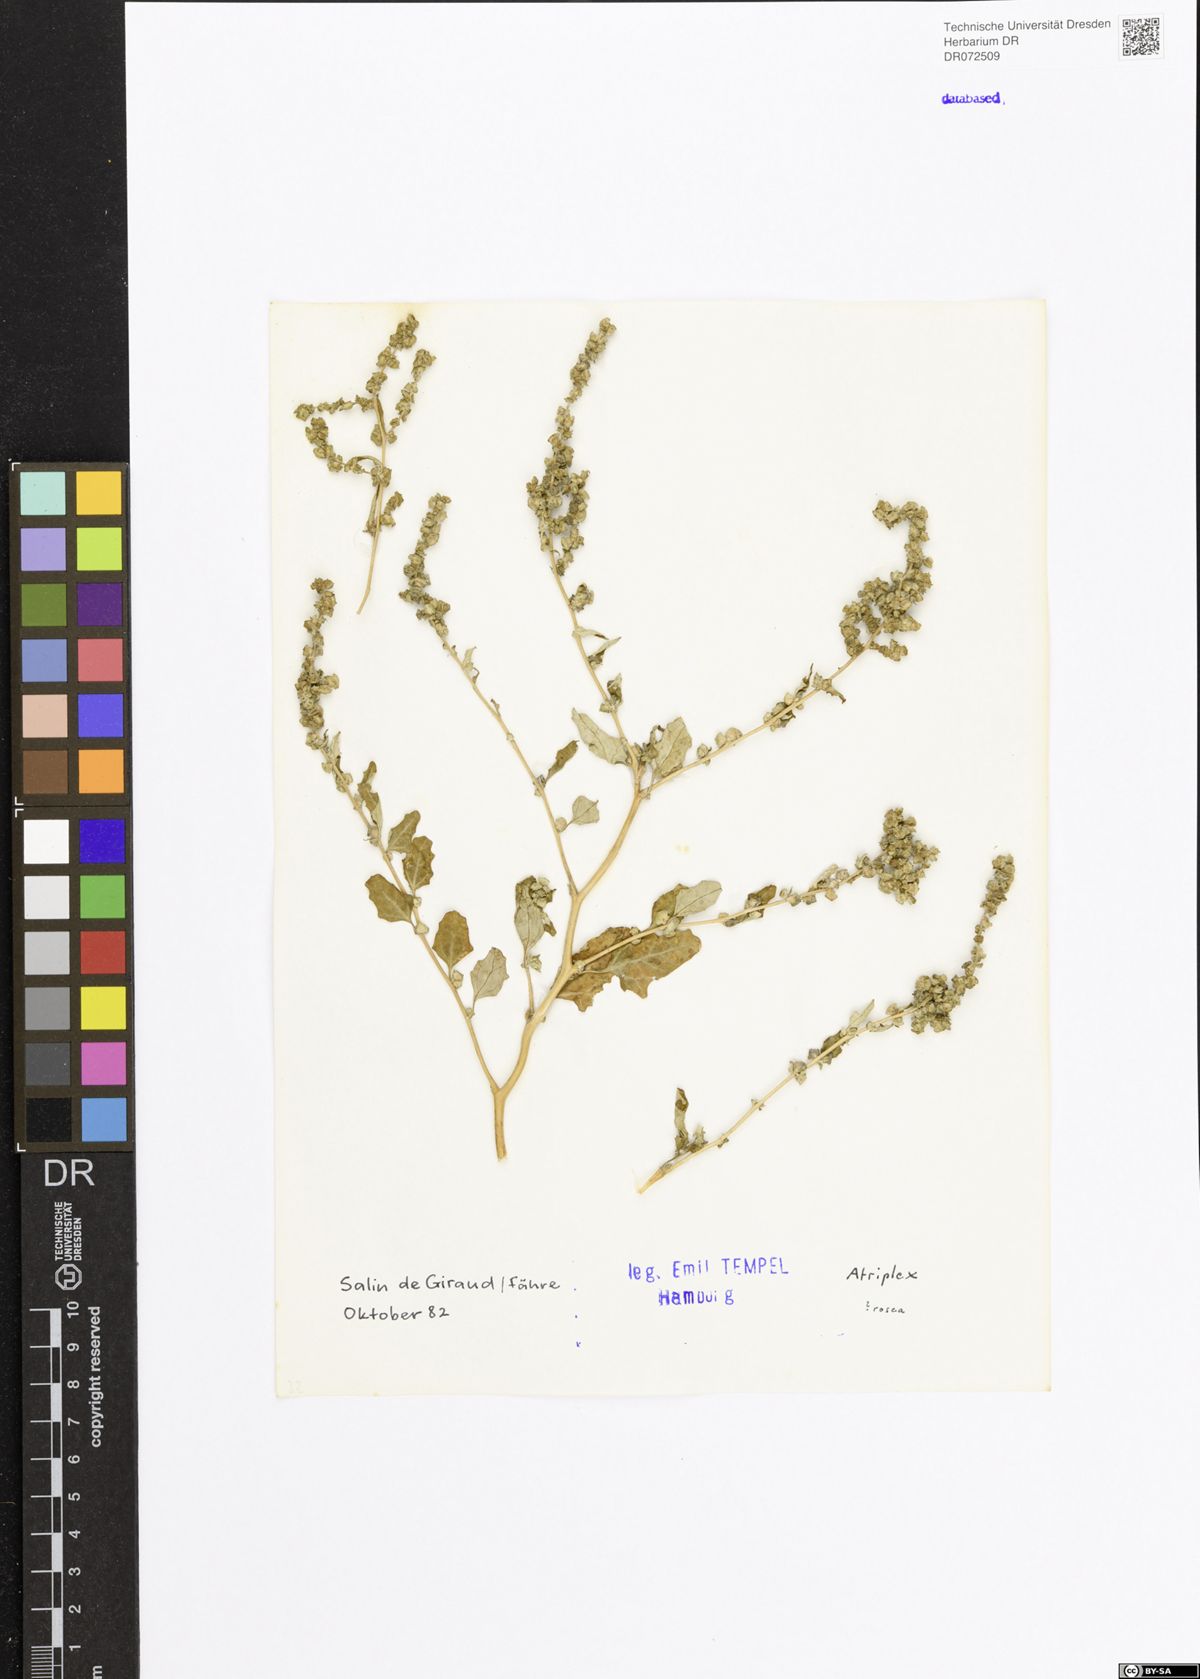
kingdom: Plantae
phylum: Tracheophyta
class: Magnoliopsida
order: Caryophyllales
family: Amaranthaceae
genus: Atriplex
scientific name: Atriplex
